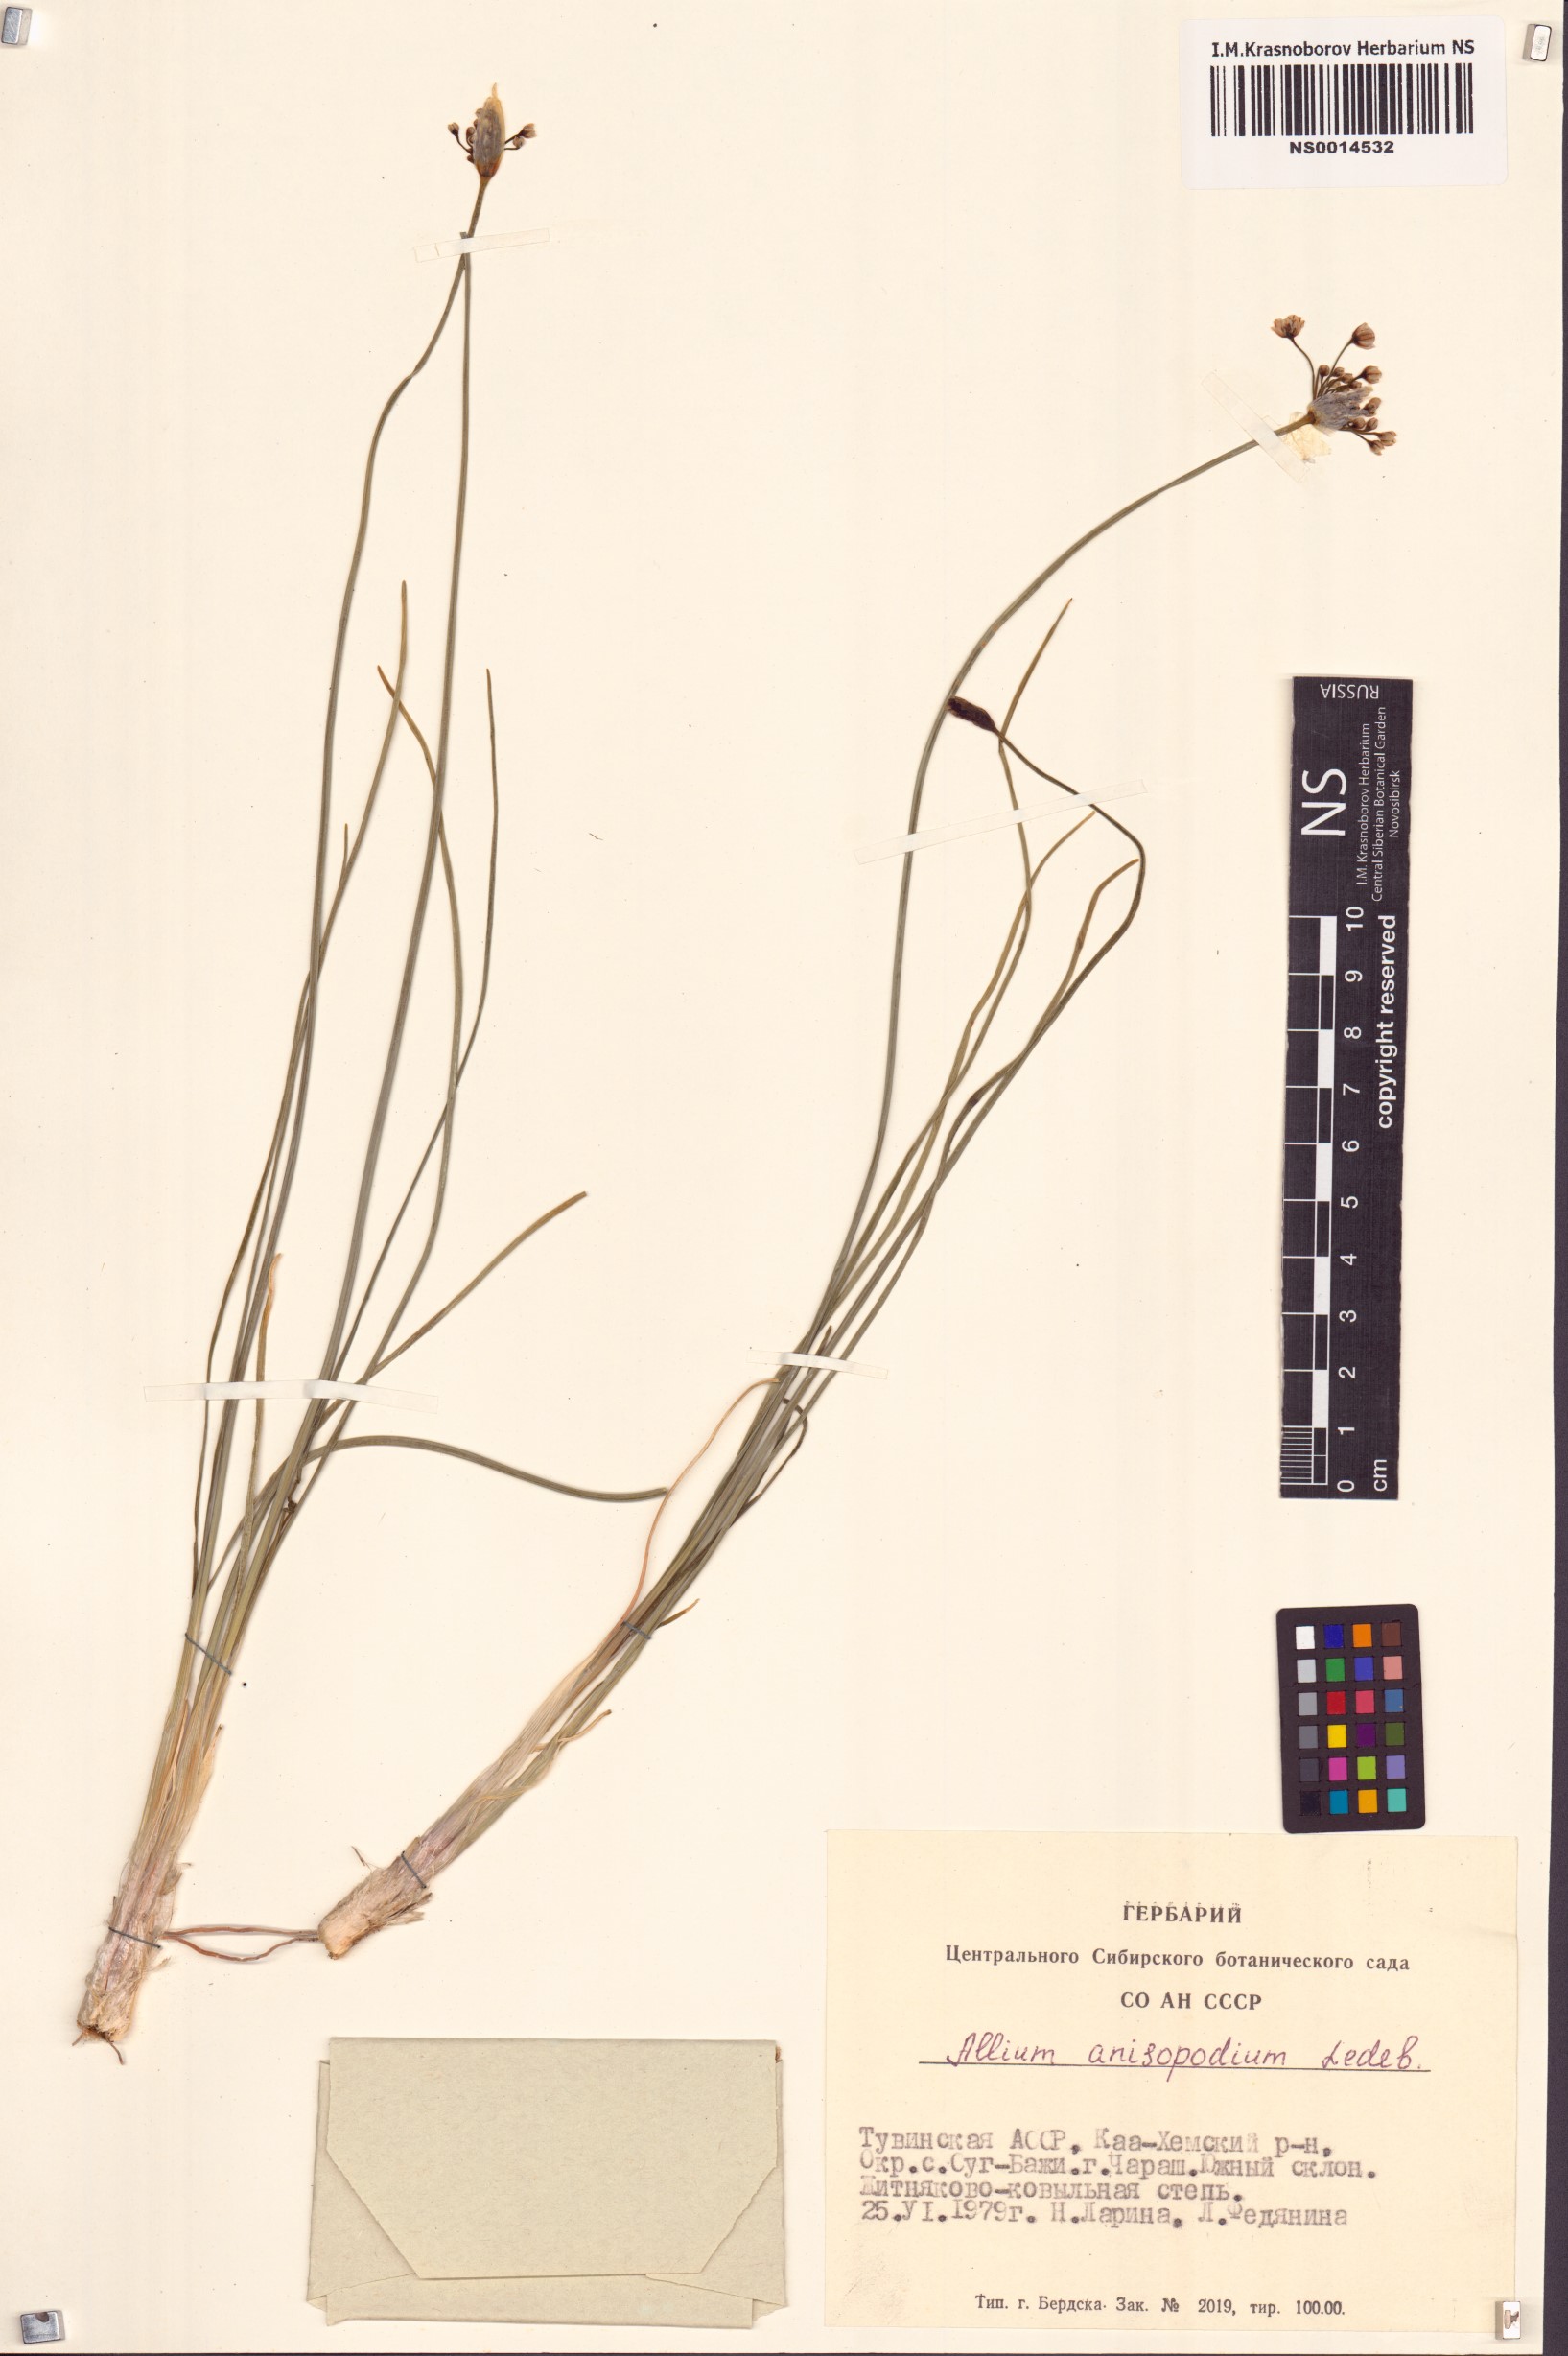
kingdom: Plantae
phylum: Tracheophyta
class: Liliopsida
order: Asparagales
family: Amaryllidaceae
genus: Allium
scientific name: Allium anisopodium
